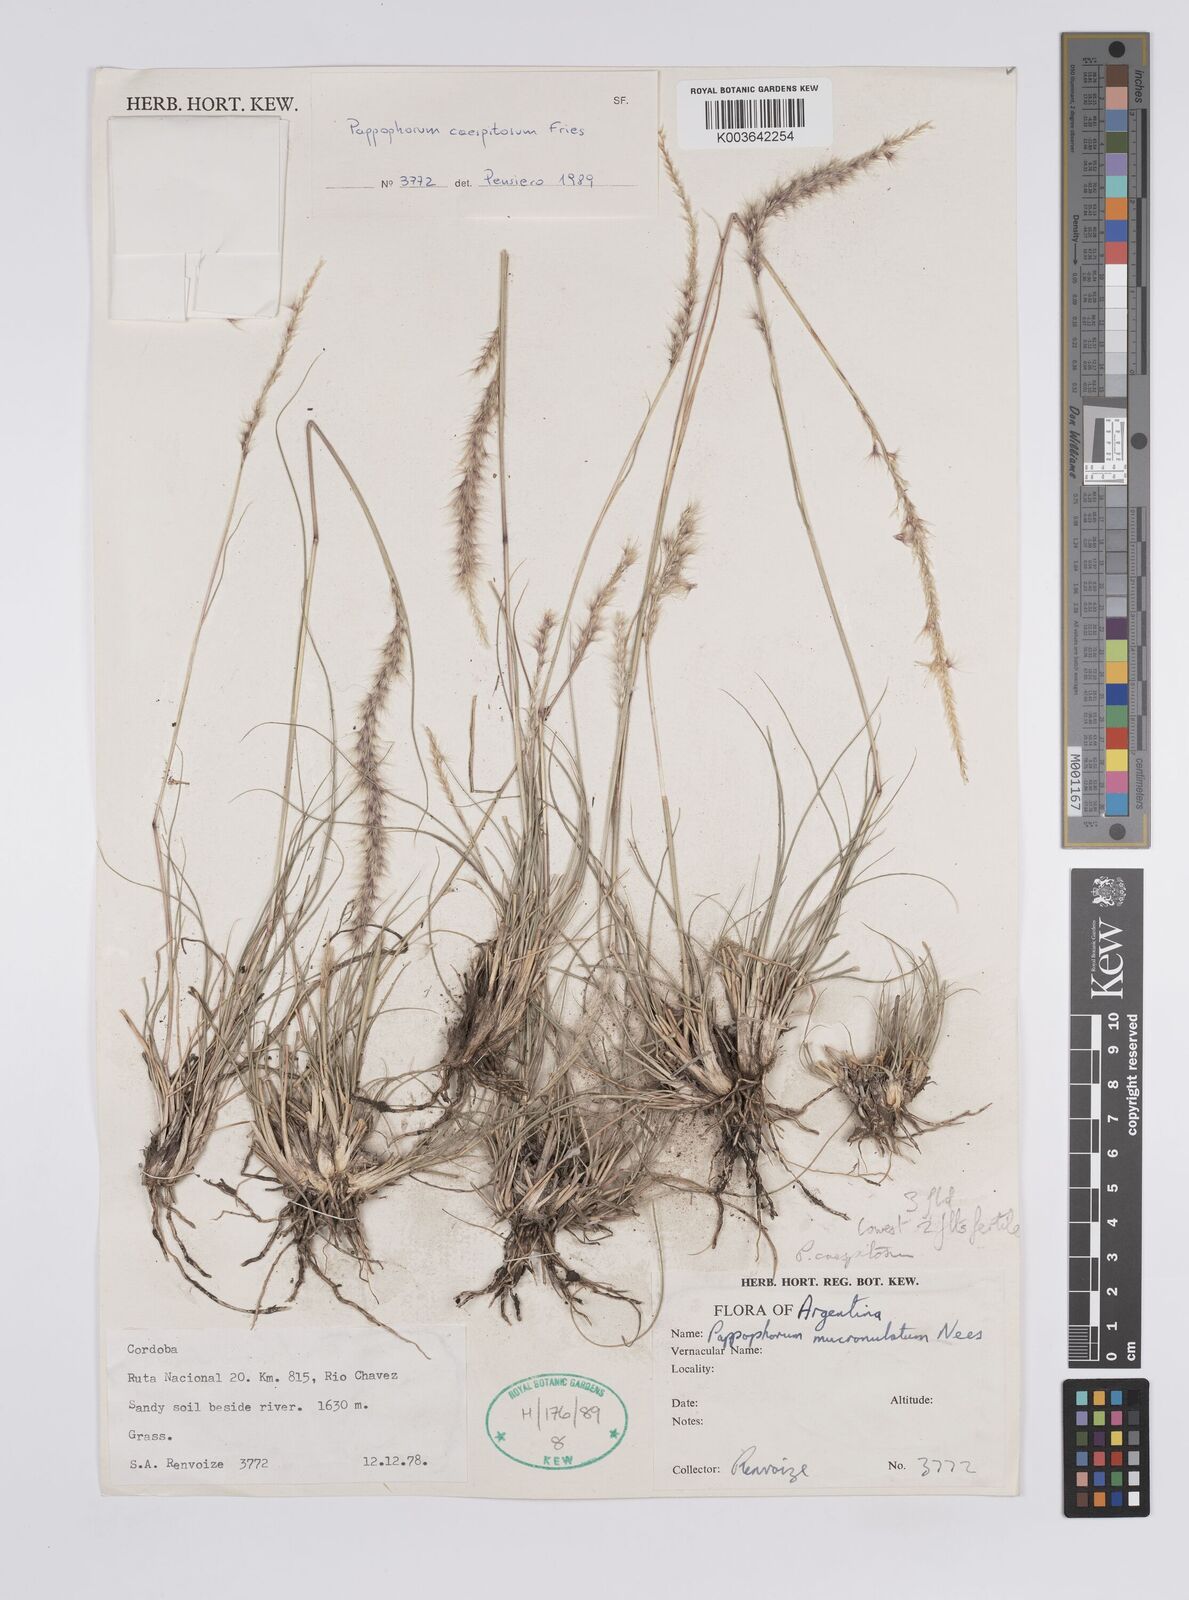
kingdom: Plantae
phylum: Tracheophyta
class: Liliopsida
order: Poales
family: Poaceae
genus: Pappophorum
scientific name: Pappophorum caespitosum
